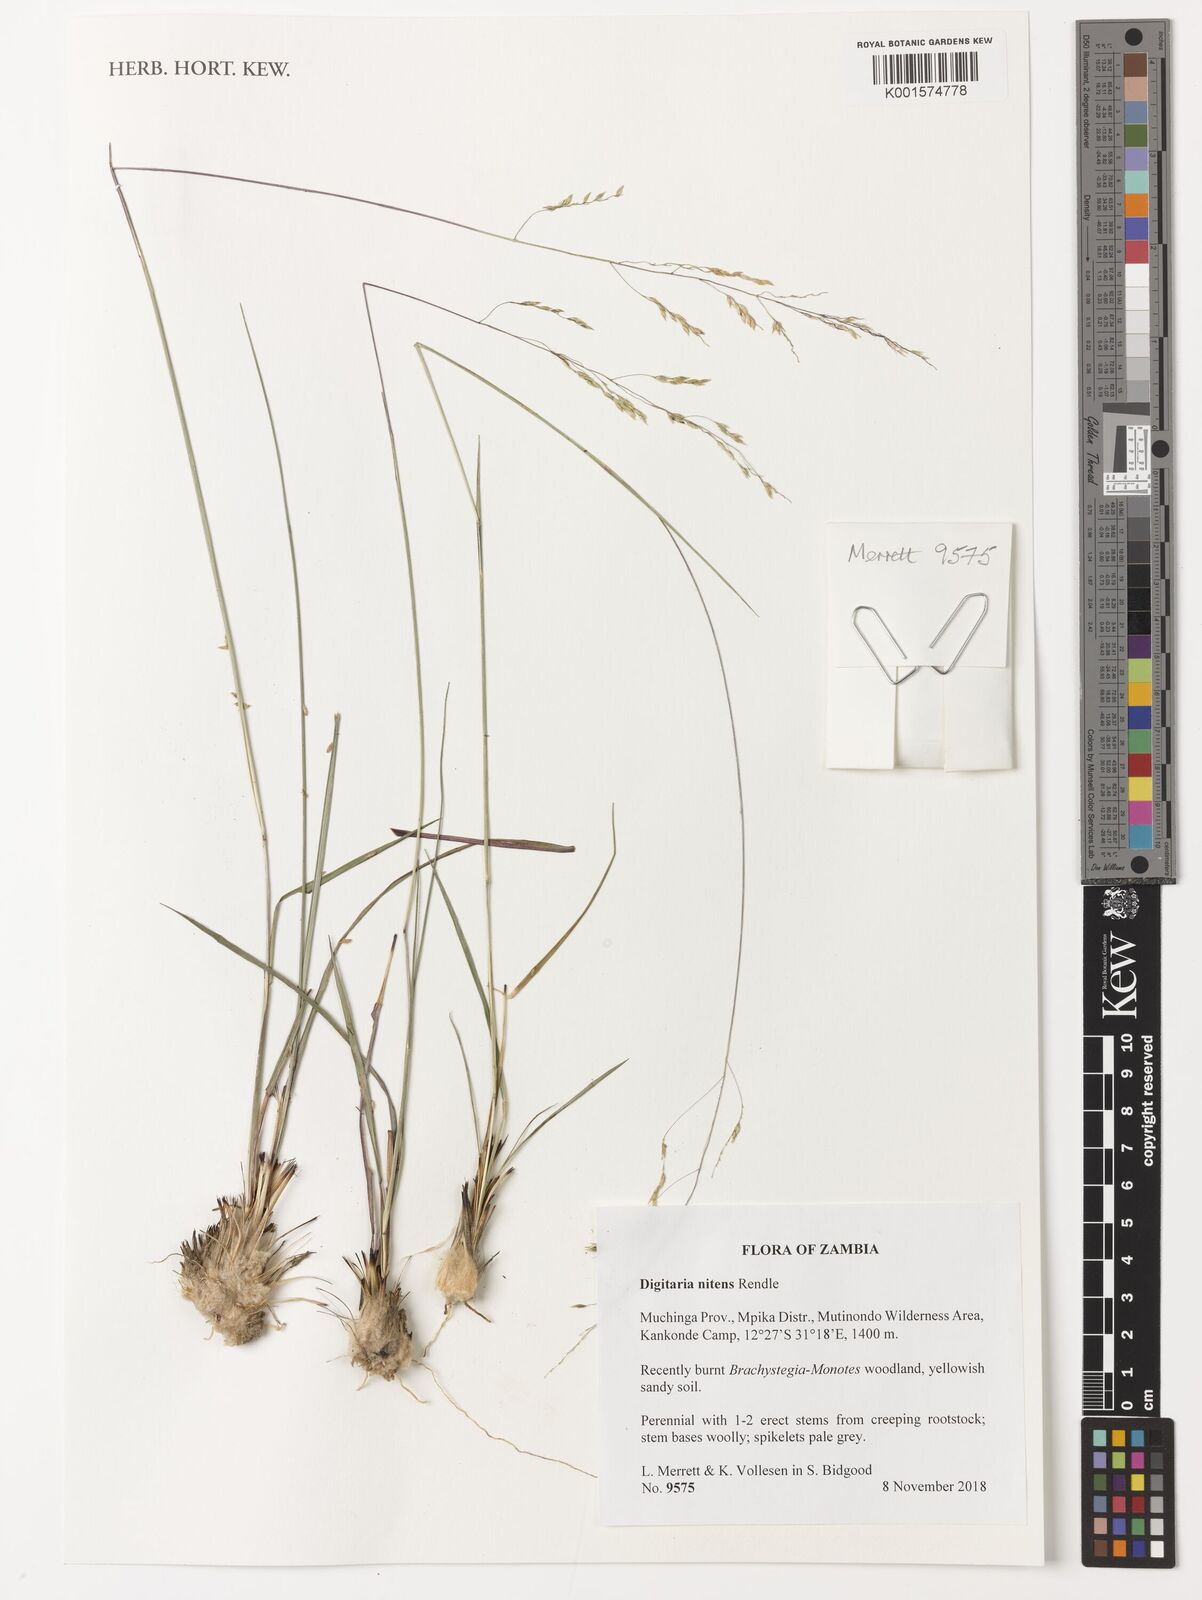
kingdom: Plantae
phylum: Tracheophyta
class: Liliopsida
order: Poales
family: Poaceae
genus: Digitaria
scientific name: Digitaria flaccida
